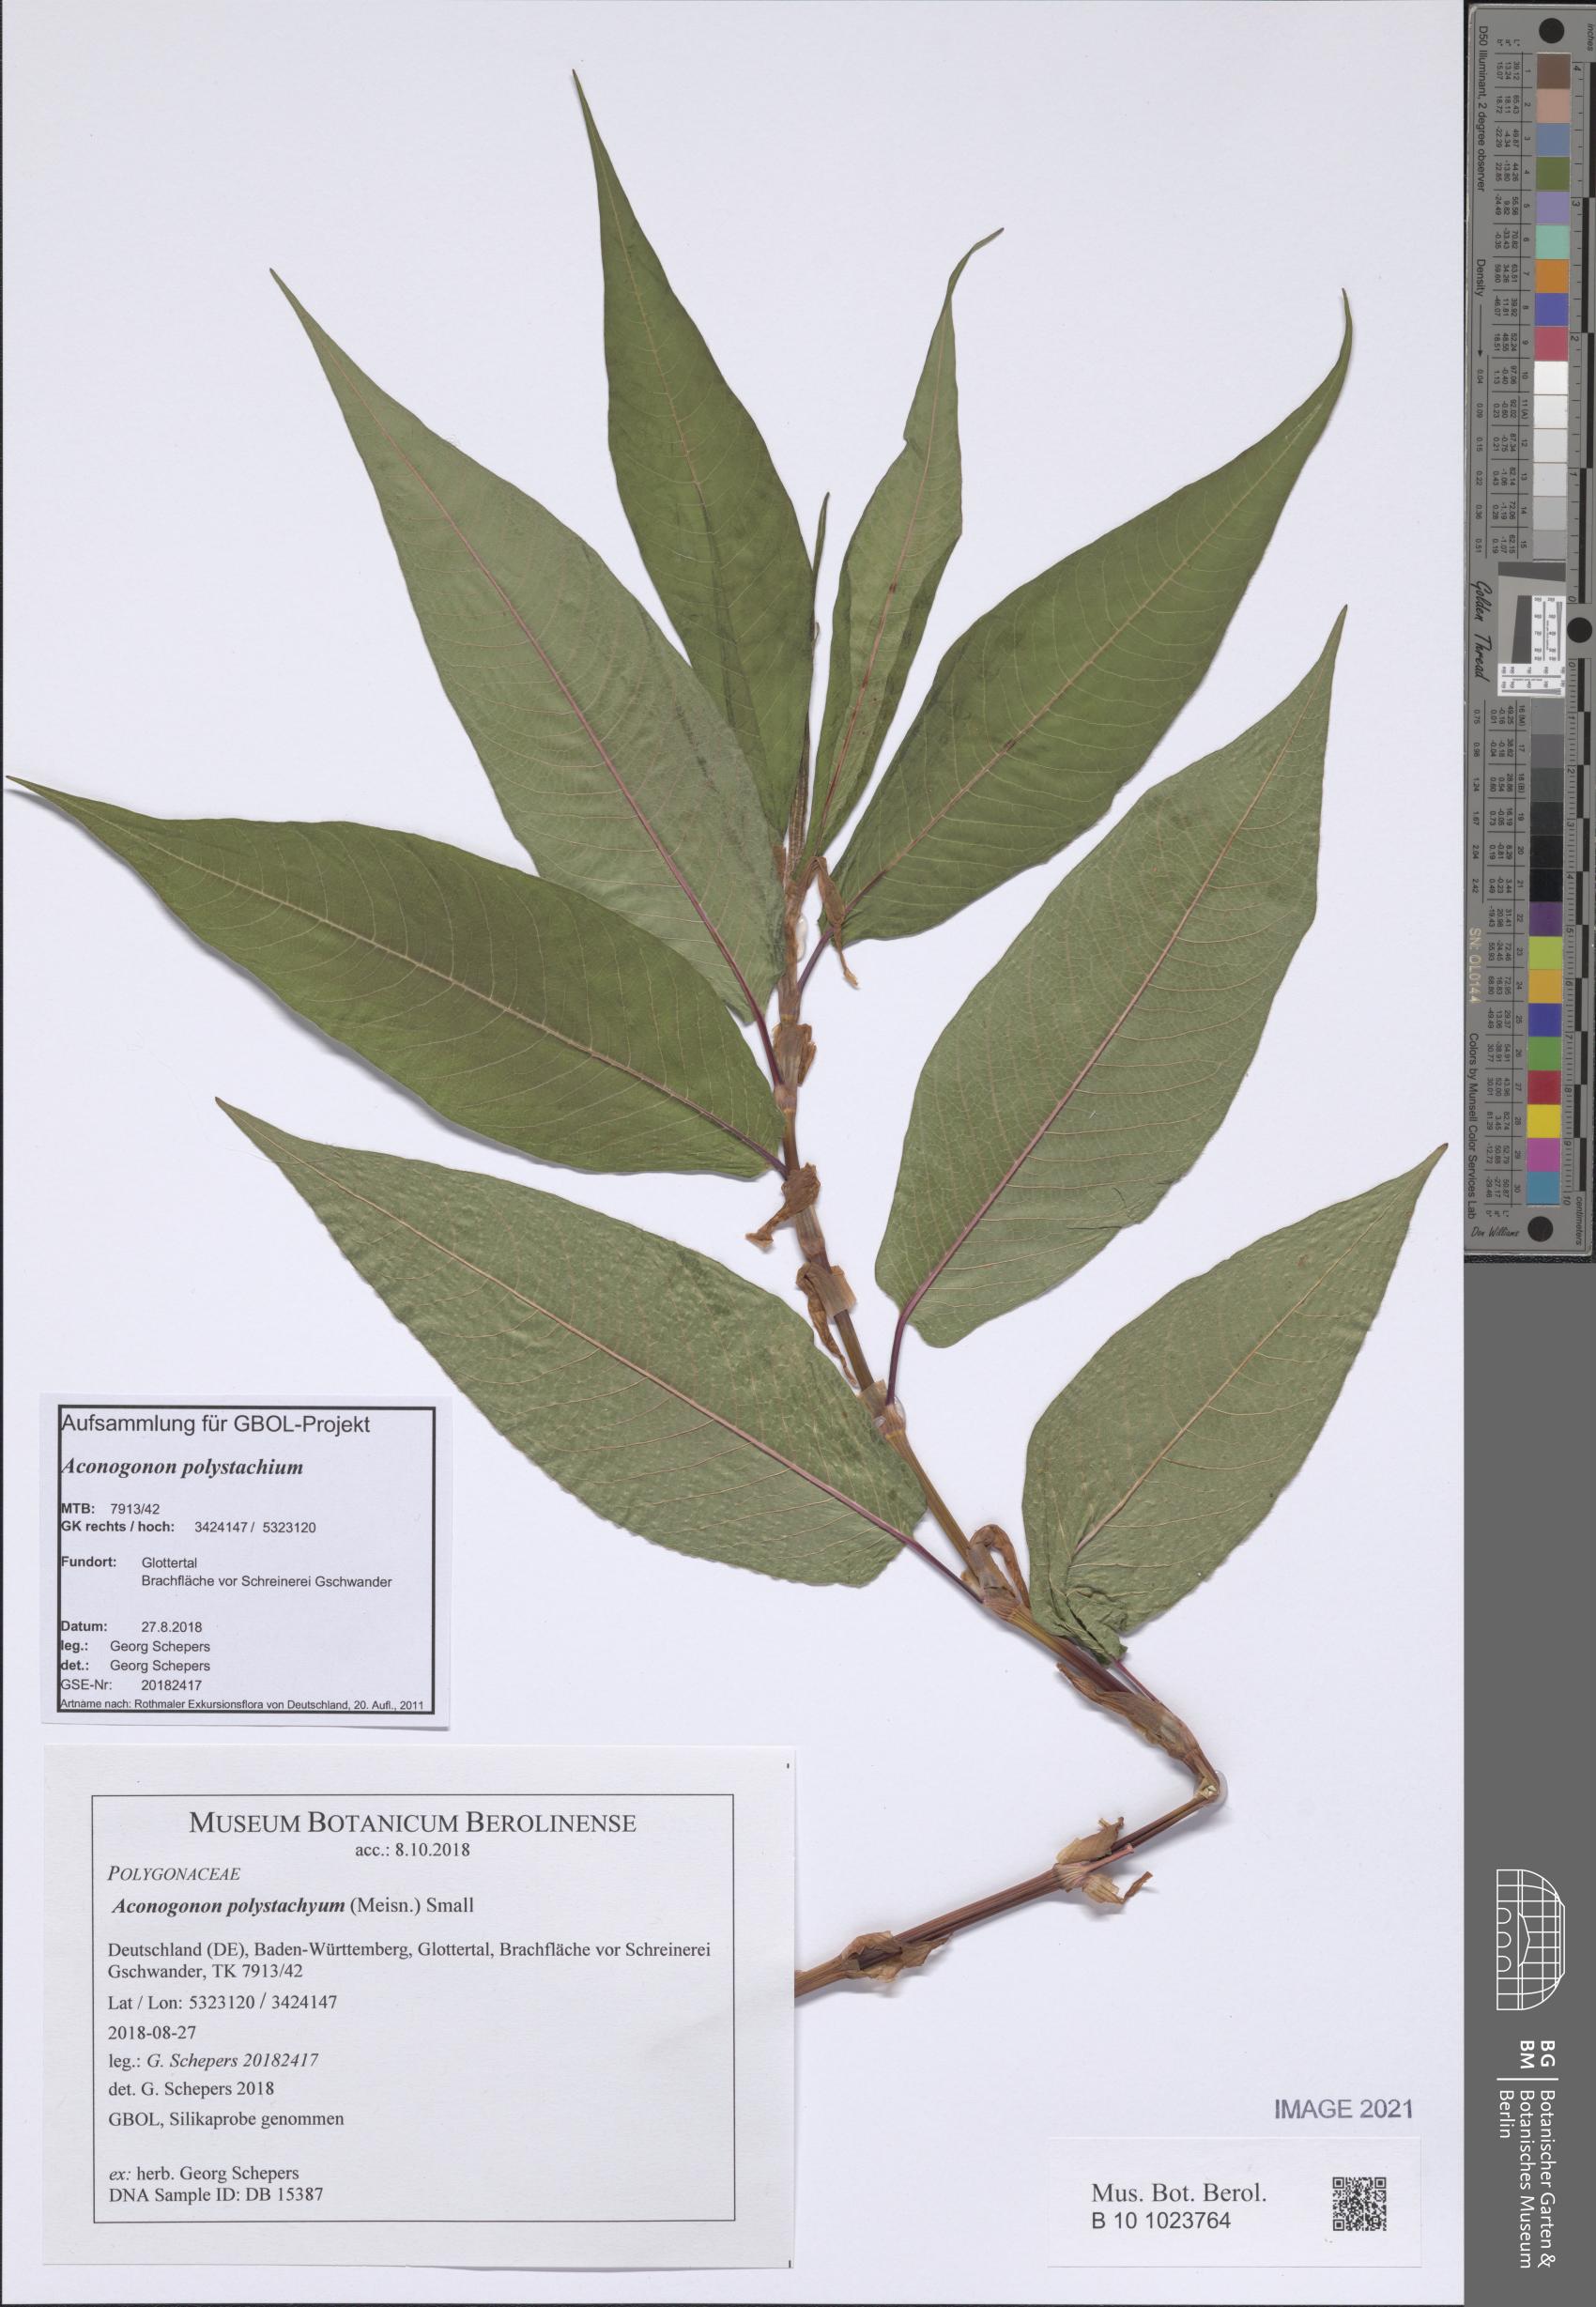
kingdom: Plantae
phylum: Tracheophyta
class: Magnoliopsida
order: Caryophyllales
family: Polygonaceae
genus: Koenigia
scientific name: Koenigia Aconogonon polystachyum
